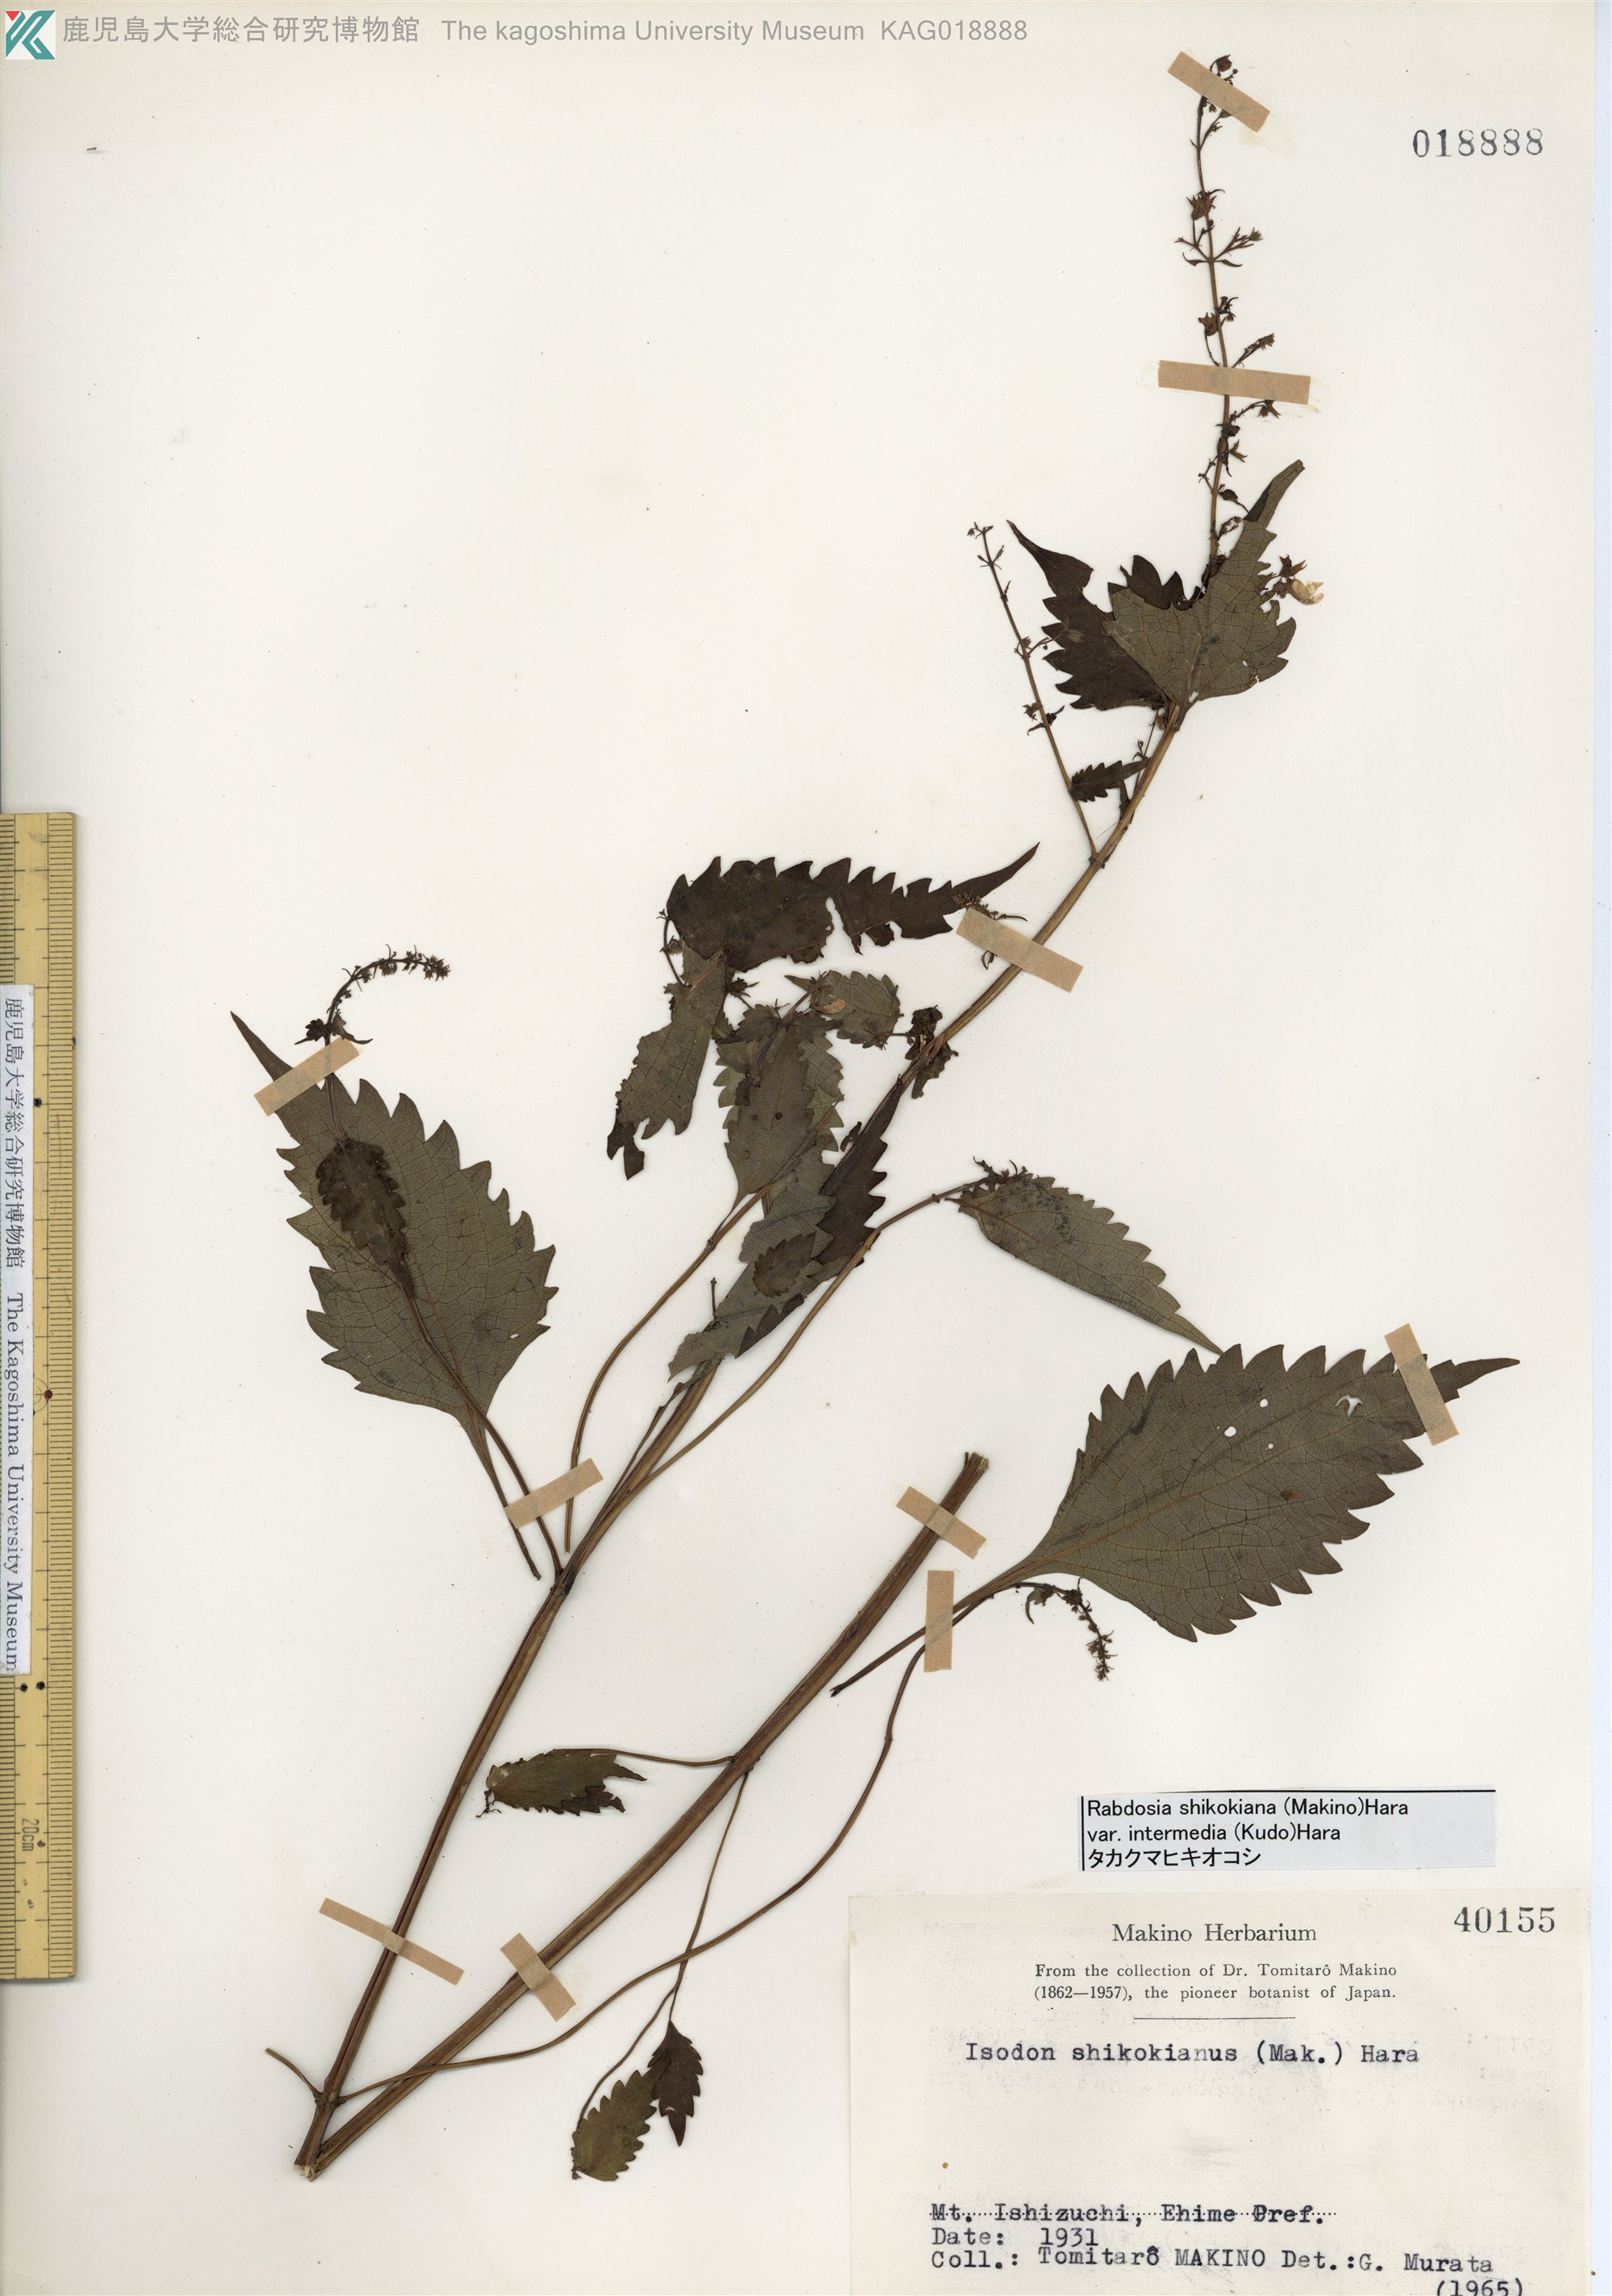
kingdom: Plantae
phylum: Tracheophyta
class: Magnoliopsida
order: Lamiales
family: Lamiaceae
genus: Isodon
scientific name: Isodon shikokianus
